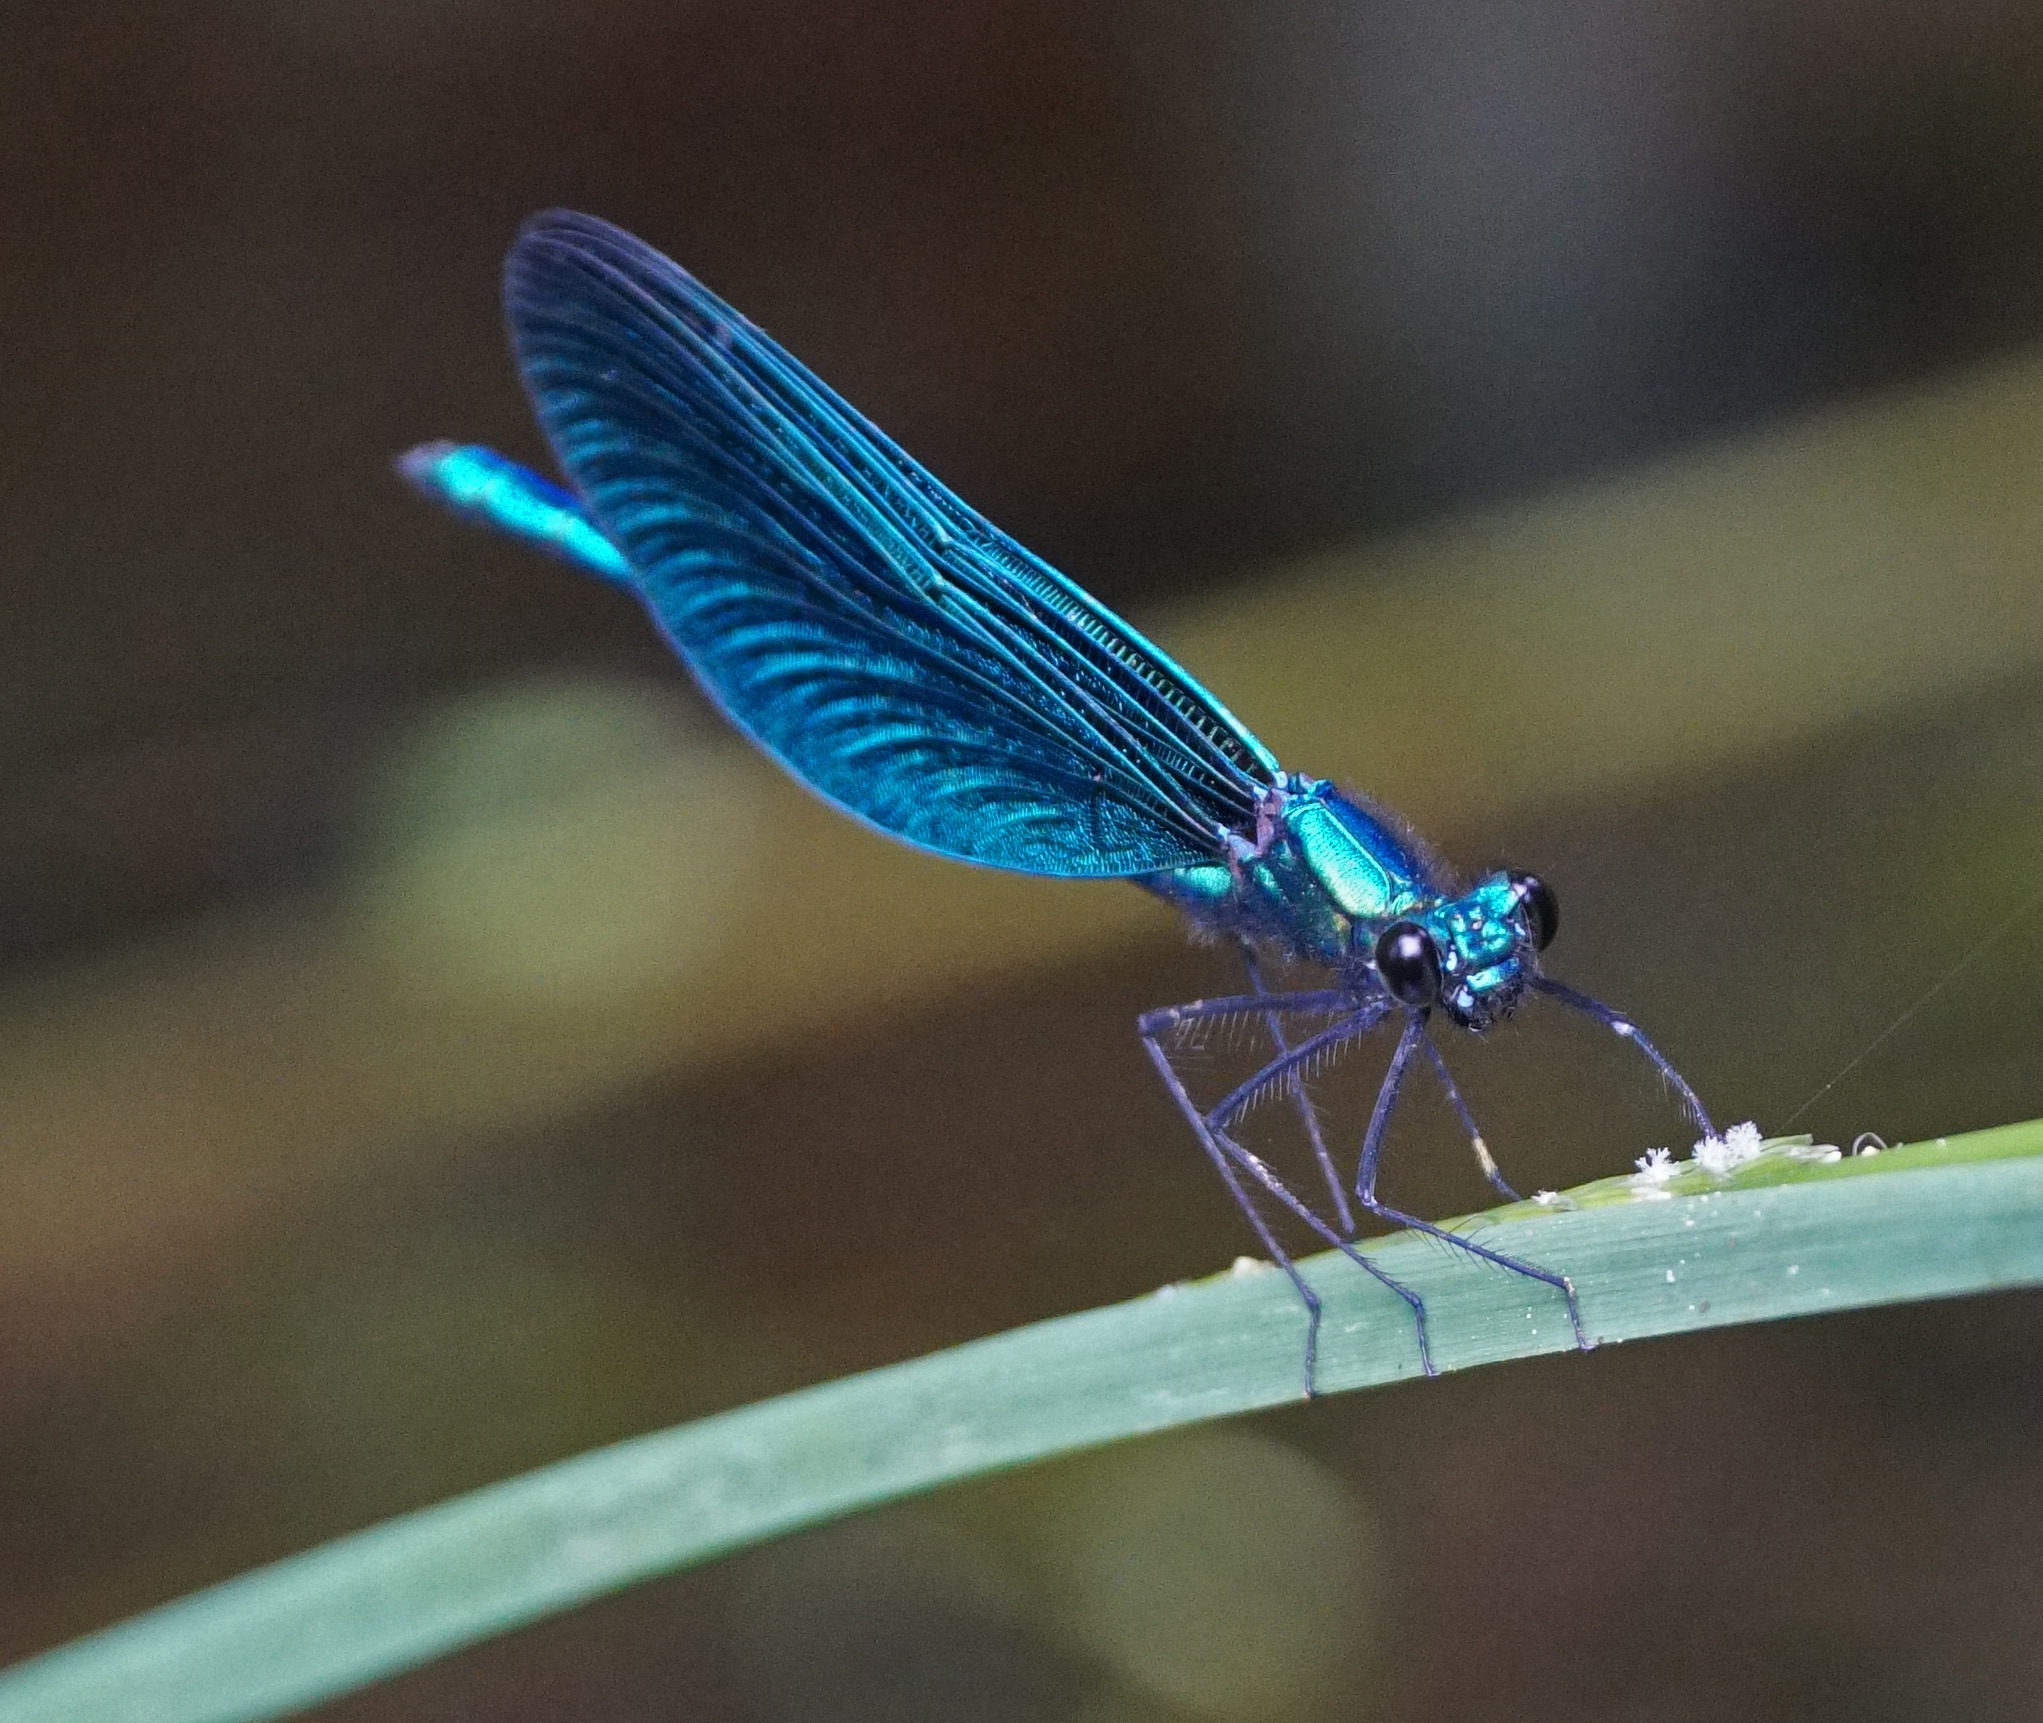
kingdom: Animalia
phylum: Arthropoda
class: Insecta
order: Odonata
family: Calopterygidae
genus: Calopteryx
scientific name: Calopteryx virgo
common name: Blåvinget pragtvandnymfe
